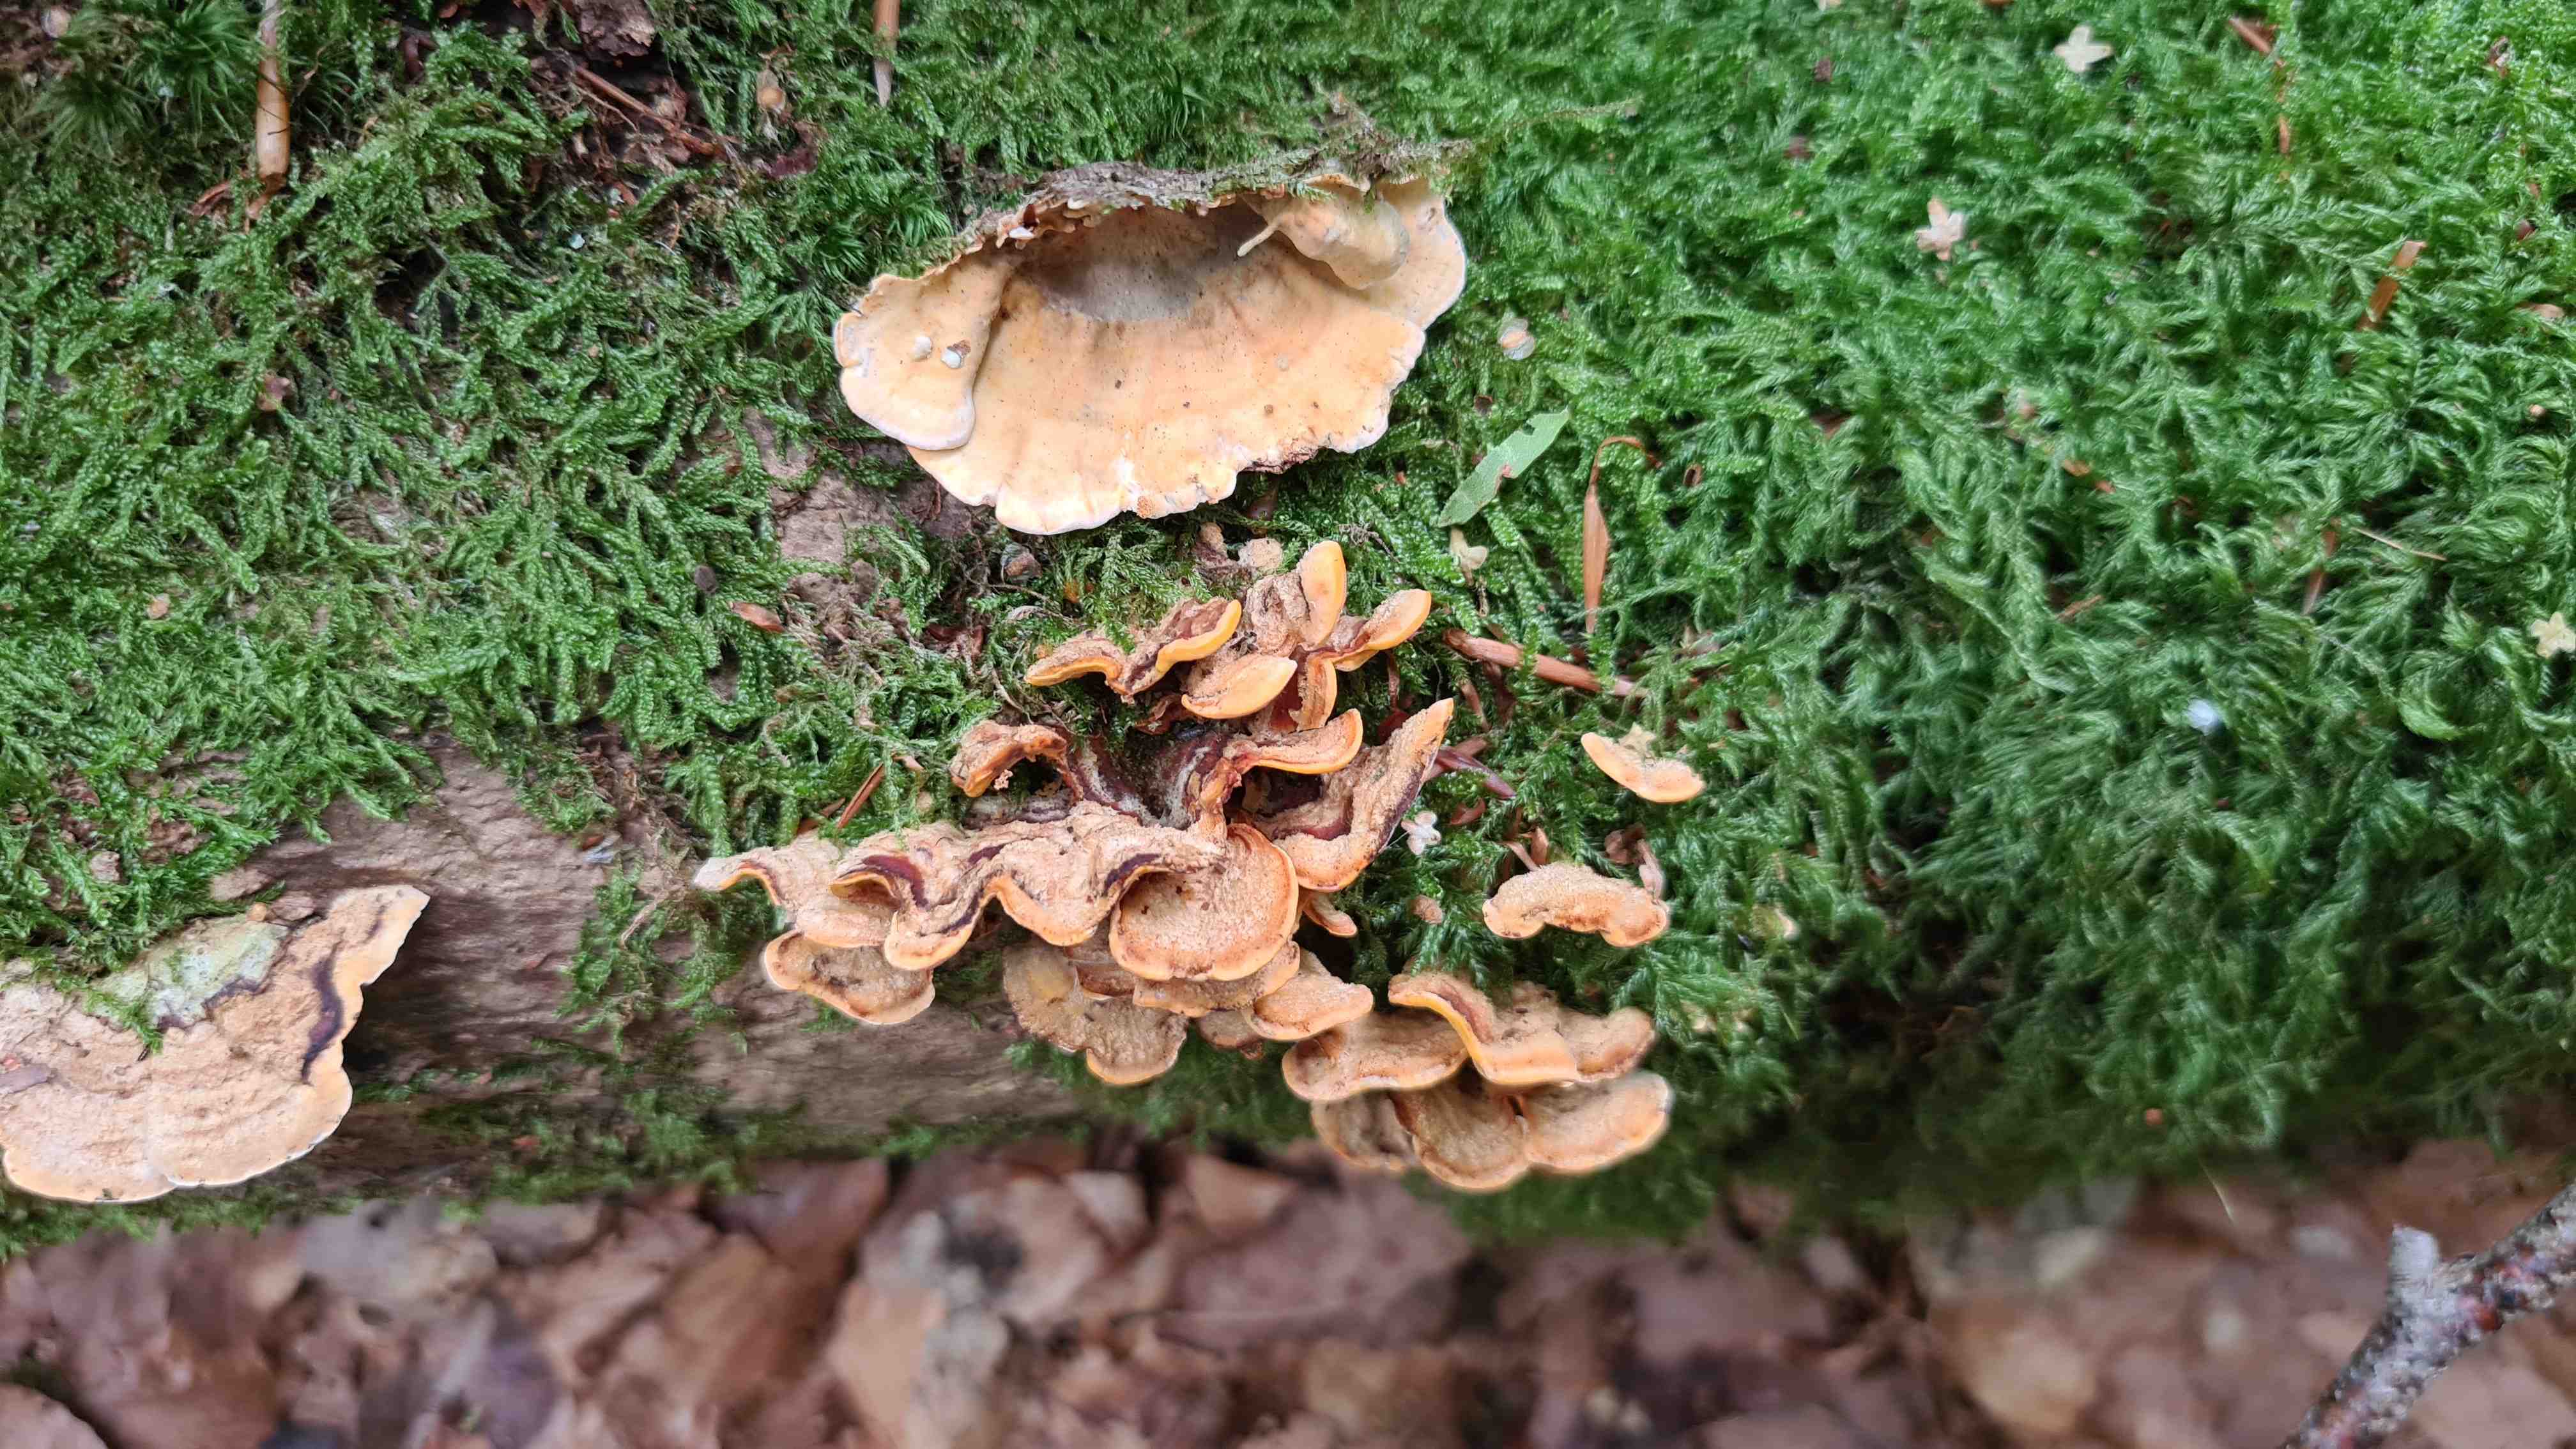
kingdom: Fungi
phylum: Basidiomycota
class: Agaricomycetes
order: Russulales
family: Stereaceae
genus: Stereum
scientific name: Stereum hirsutum
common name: håret lædersvamp
